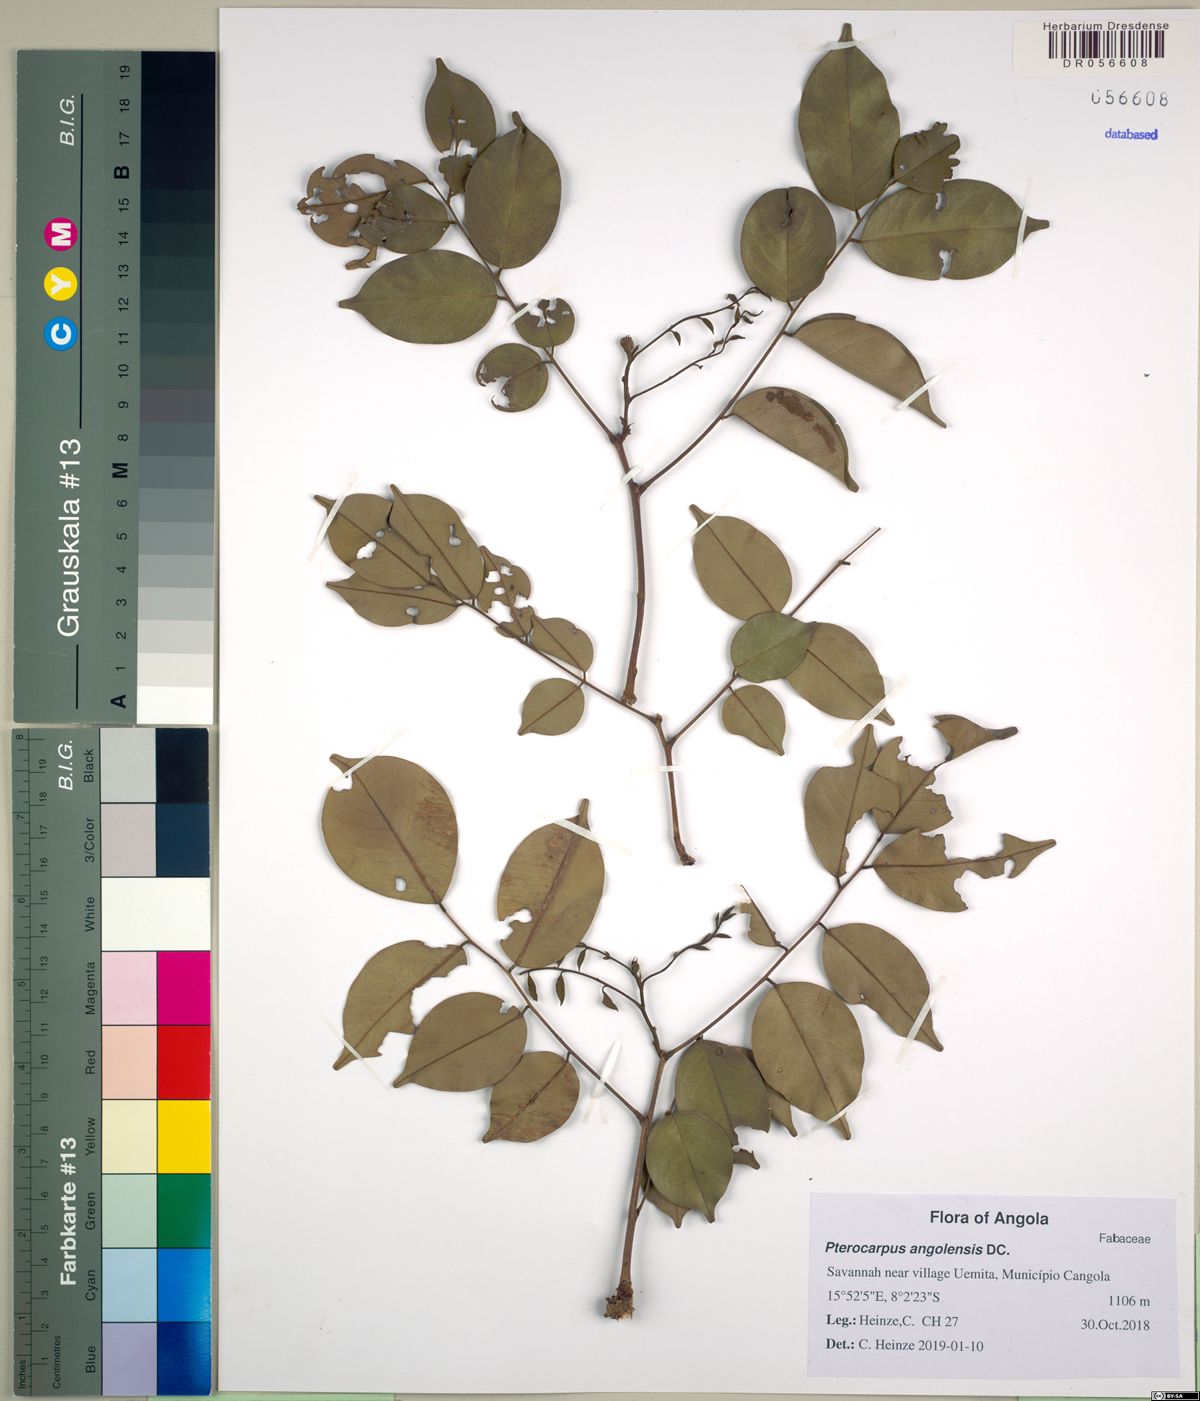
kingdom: Plantae
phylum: Tracheophyta
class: Magnoliopsida
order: Fabales
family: Fabaceae
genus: Pterocarpus
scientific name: Pterocarpus angolensis
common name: Bloodwood tree
